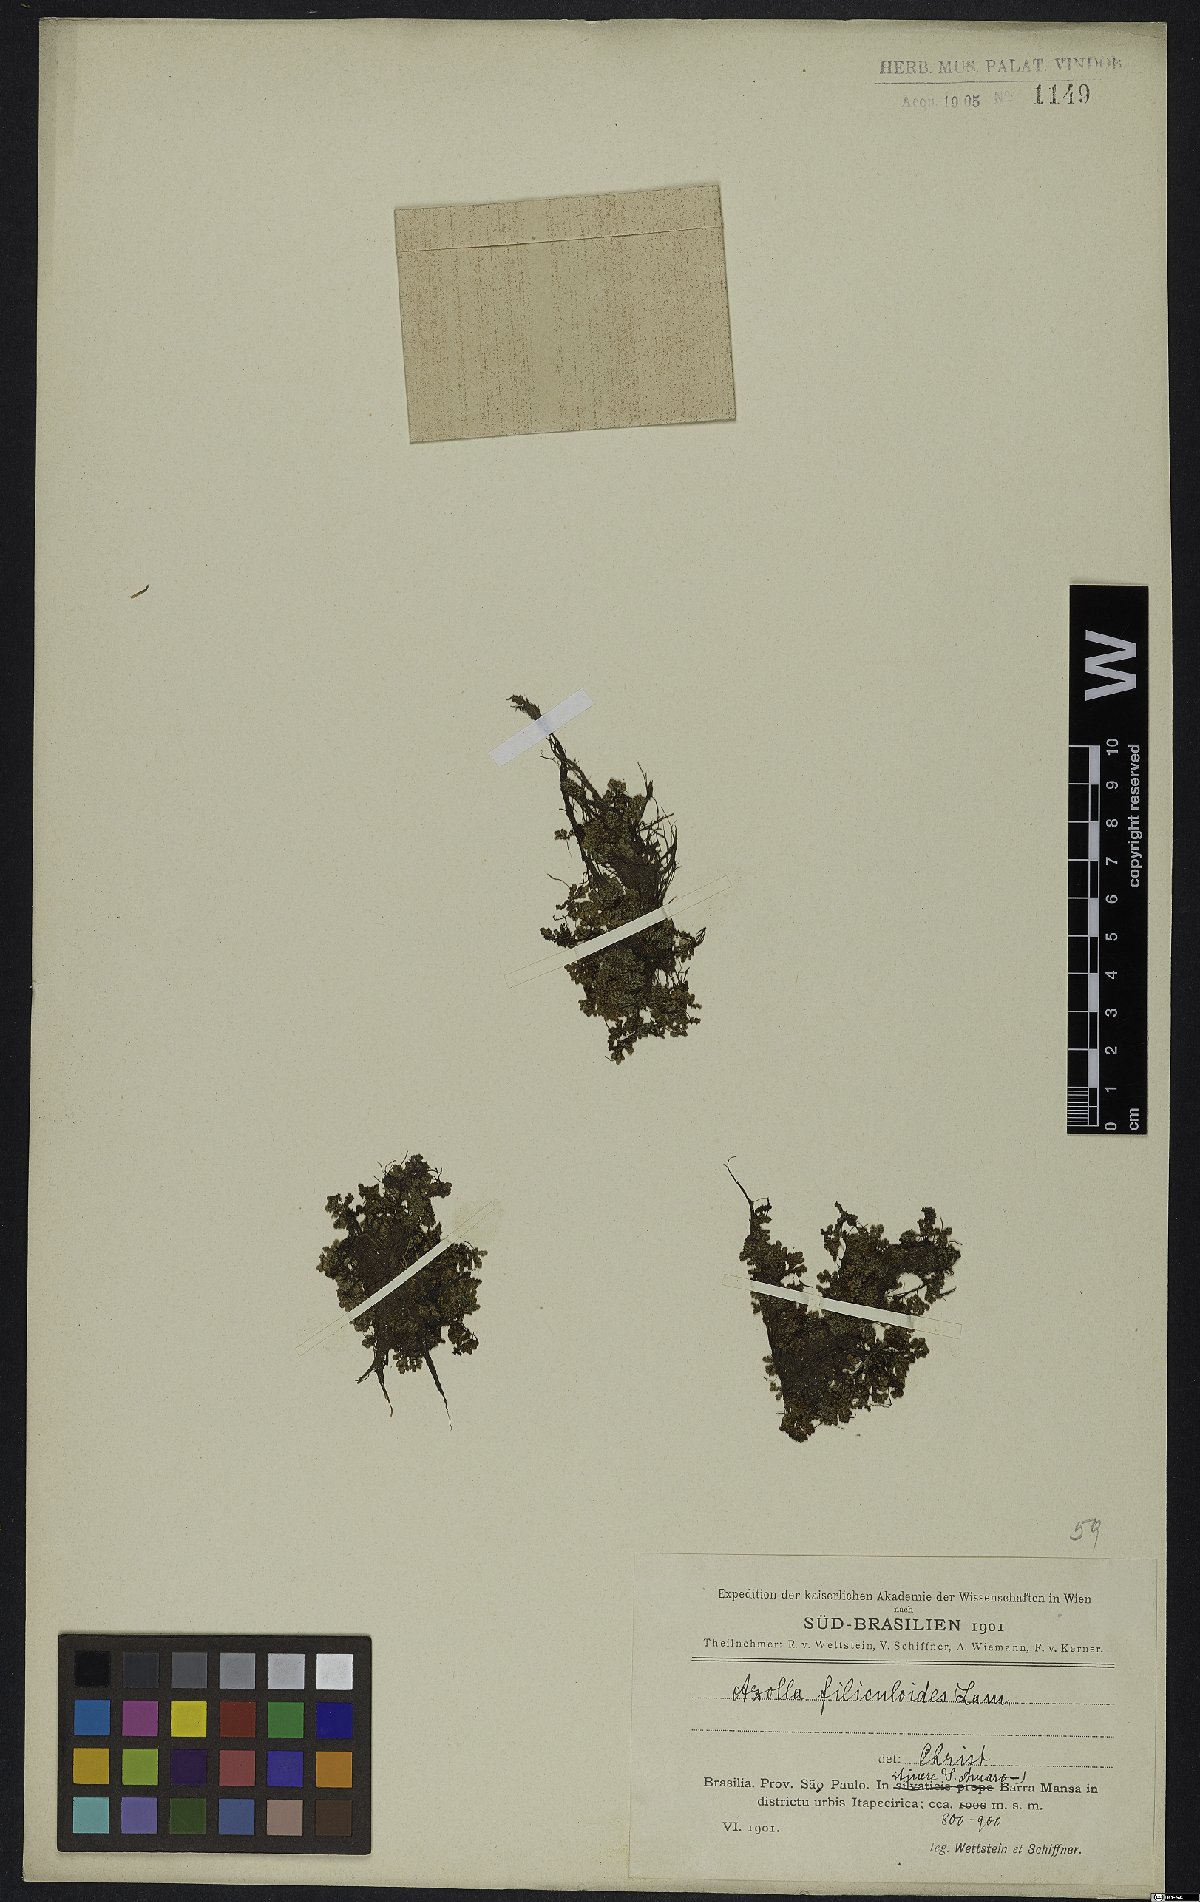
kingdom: Plantae
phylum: Tracheophyta
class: Polypodiopsida
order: Salviniales
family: Salviniaceae
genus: Azolla
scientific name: Azolla filiculoides
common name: Water fern
